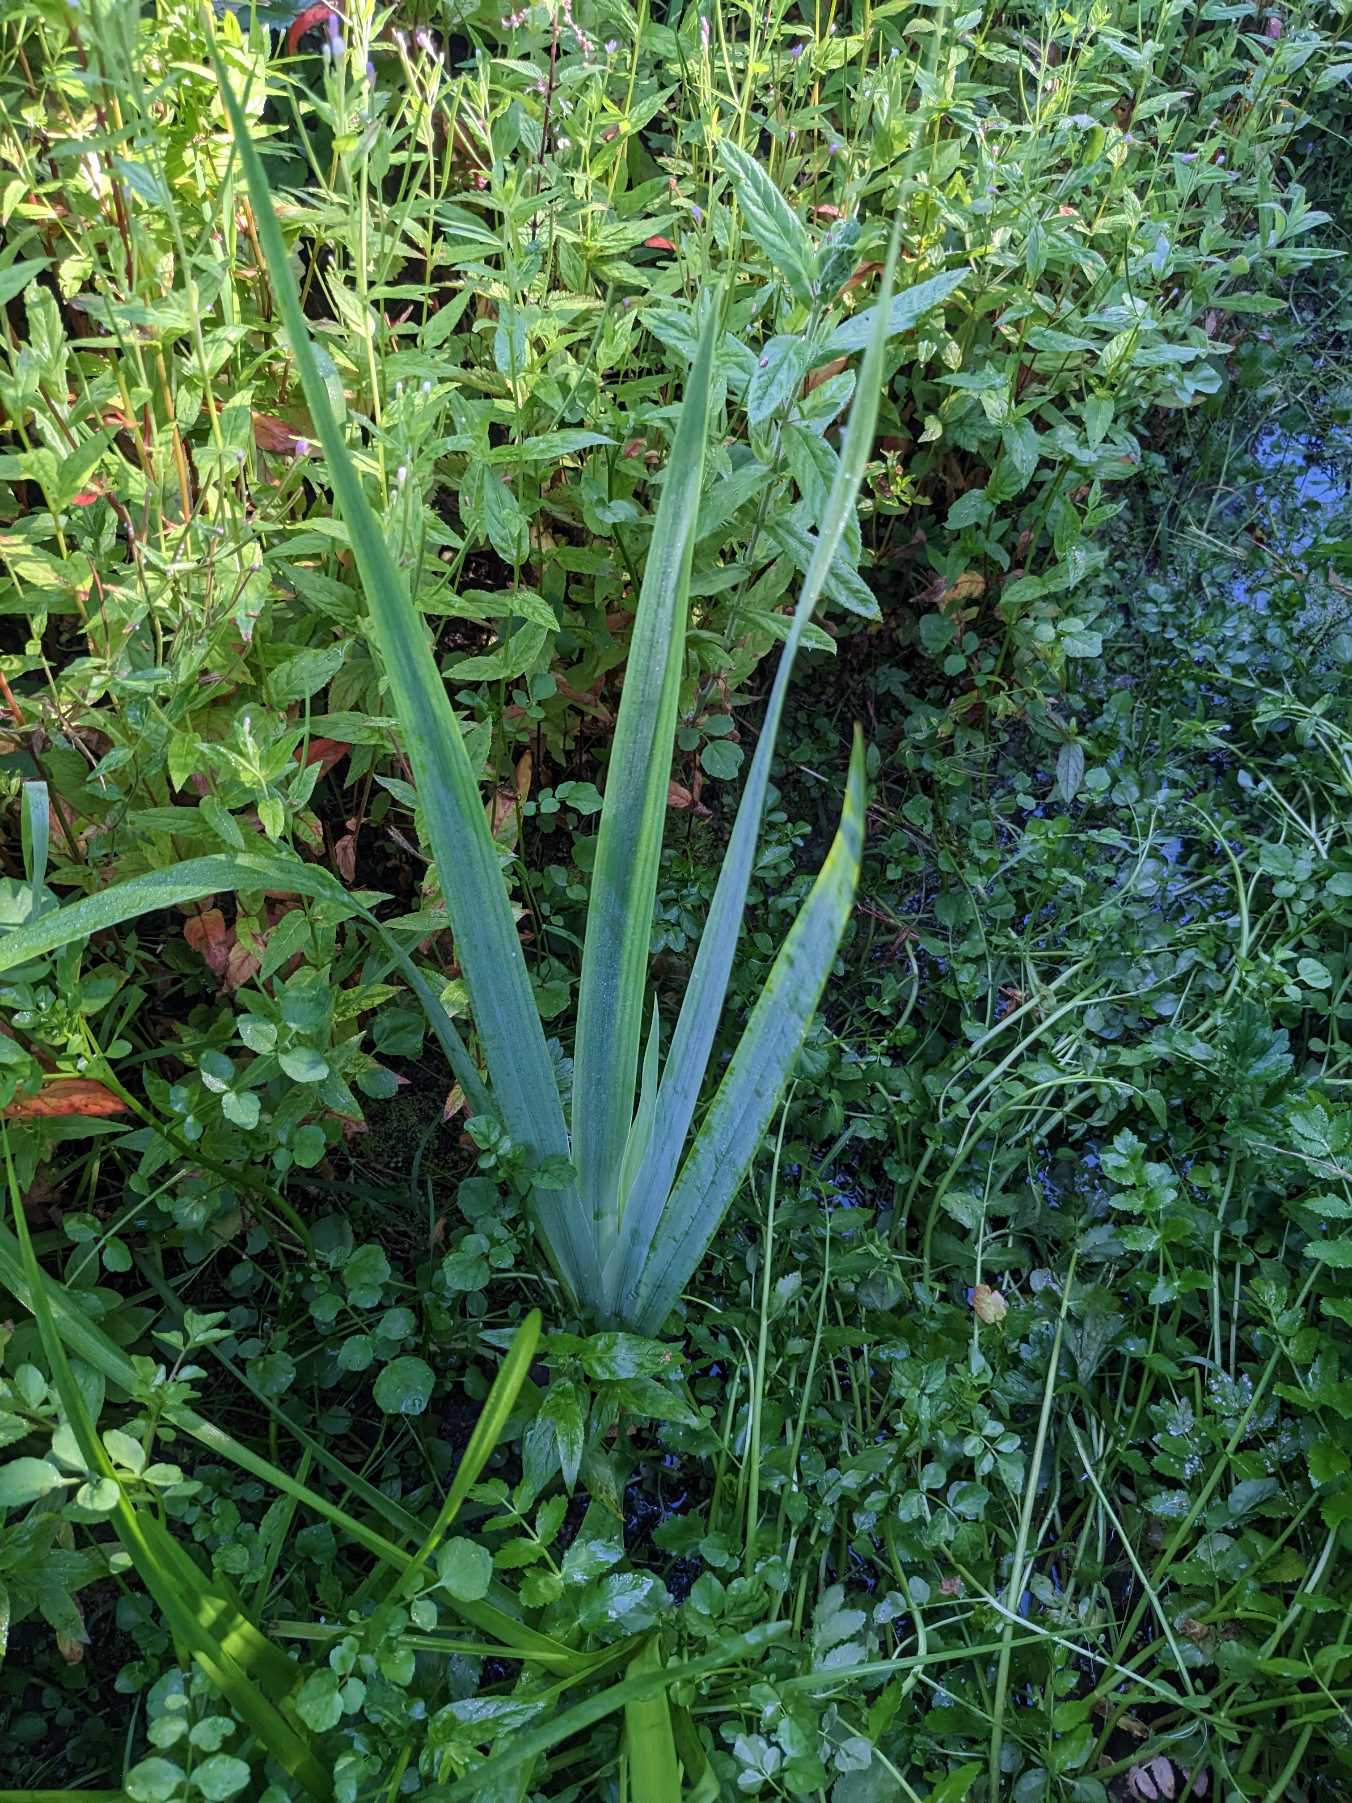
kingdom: Plantae
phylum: Tracheophyta
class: Liliopsida
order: Asparagales
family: Iridaceae
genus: Iris
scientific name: Iris pseudacorus
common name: Gul iris
